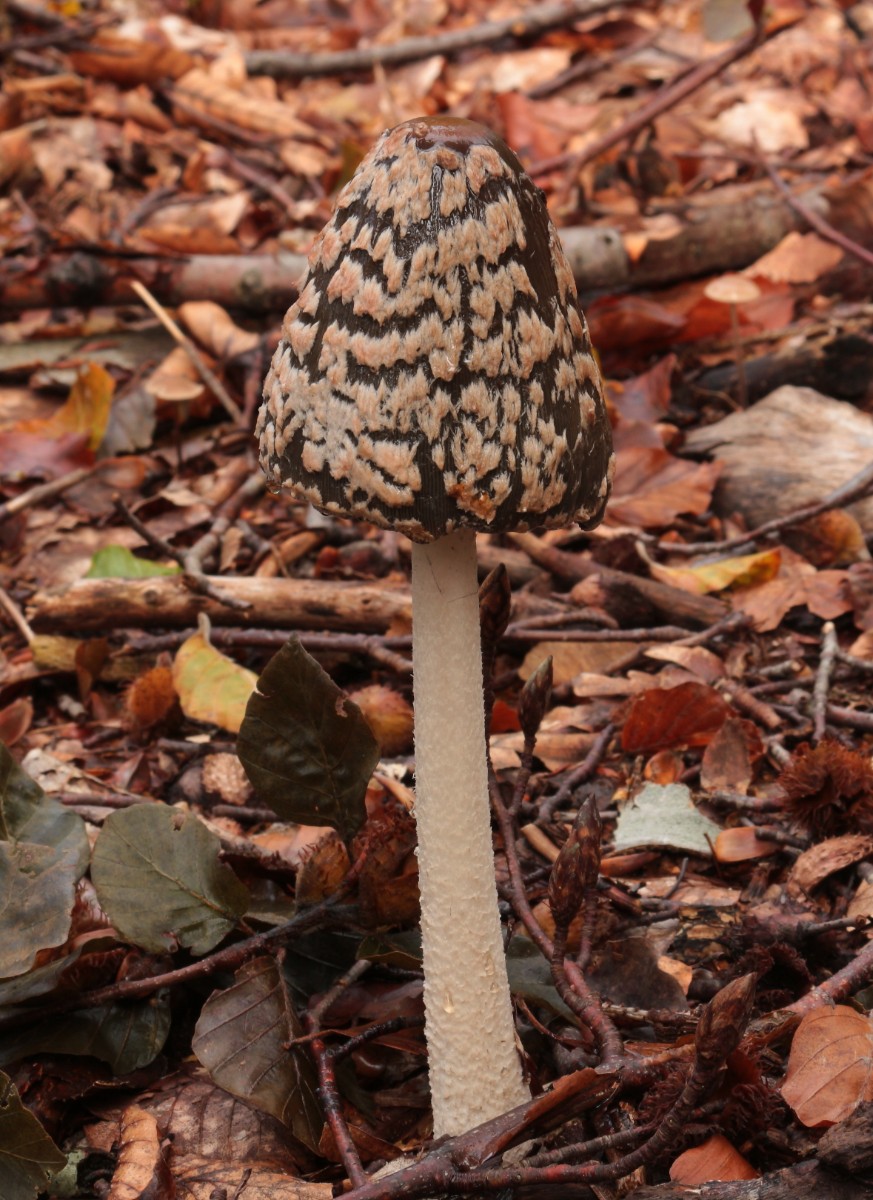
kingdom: Fungi
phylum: Basidiomycota
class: Agaricomycetes
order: Agaricales
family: Psathyrellaceae
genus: Coprinopsis
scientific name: Coprinopsis picacea
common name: skade-blækhat
